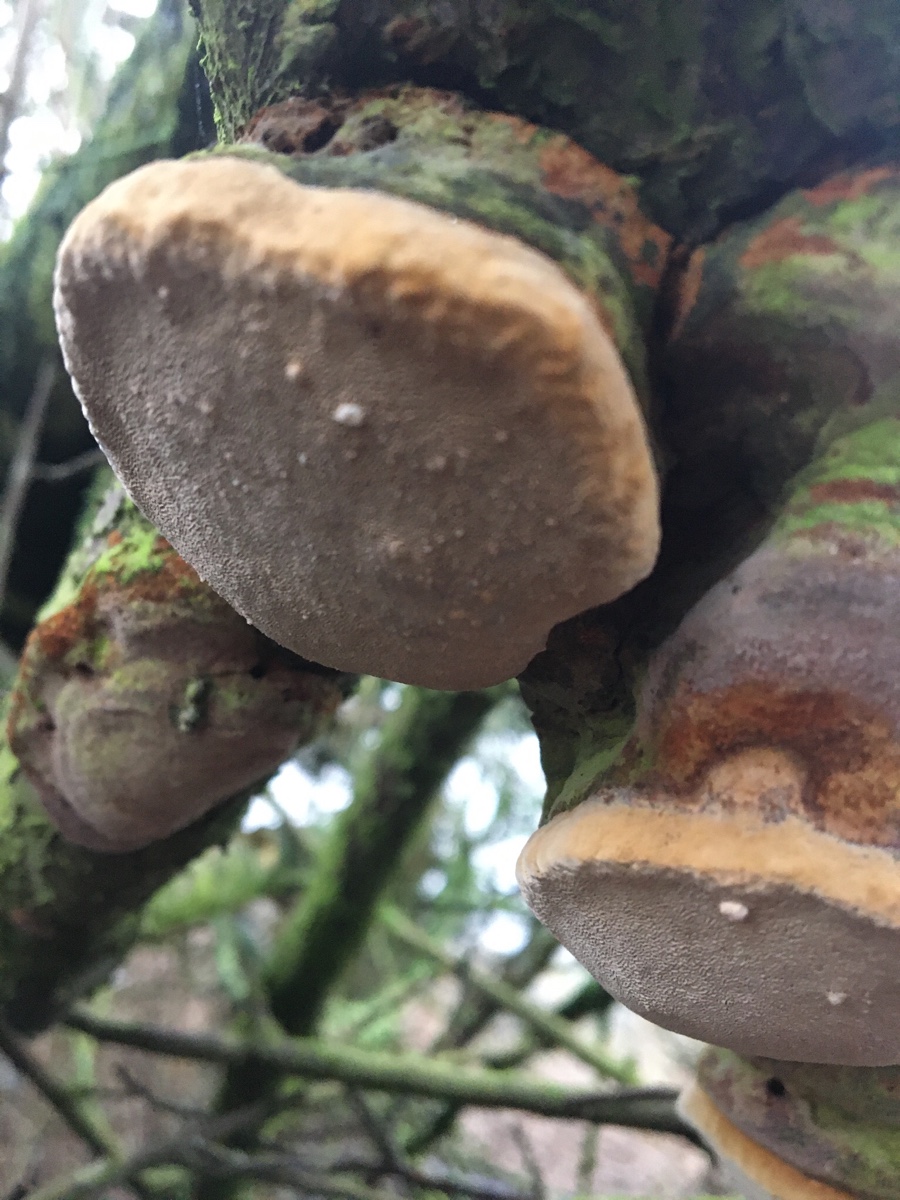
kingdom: Fungi
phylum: Basidiomycota
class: Agaricomycetes
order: Hymenochaetales
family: Hymenochaetaceae
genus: Phellinus
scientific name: Phellinus pomaceus
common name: blomme-ildporesvamp
